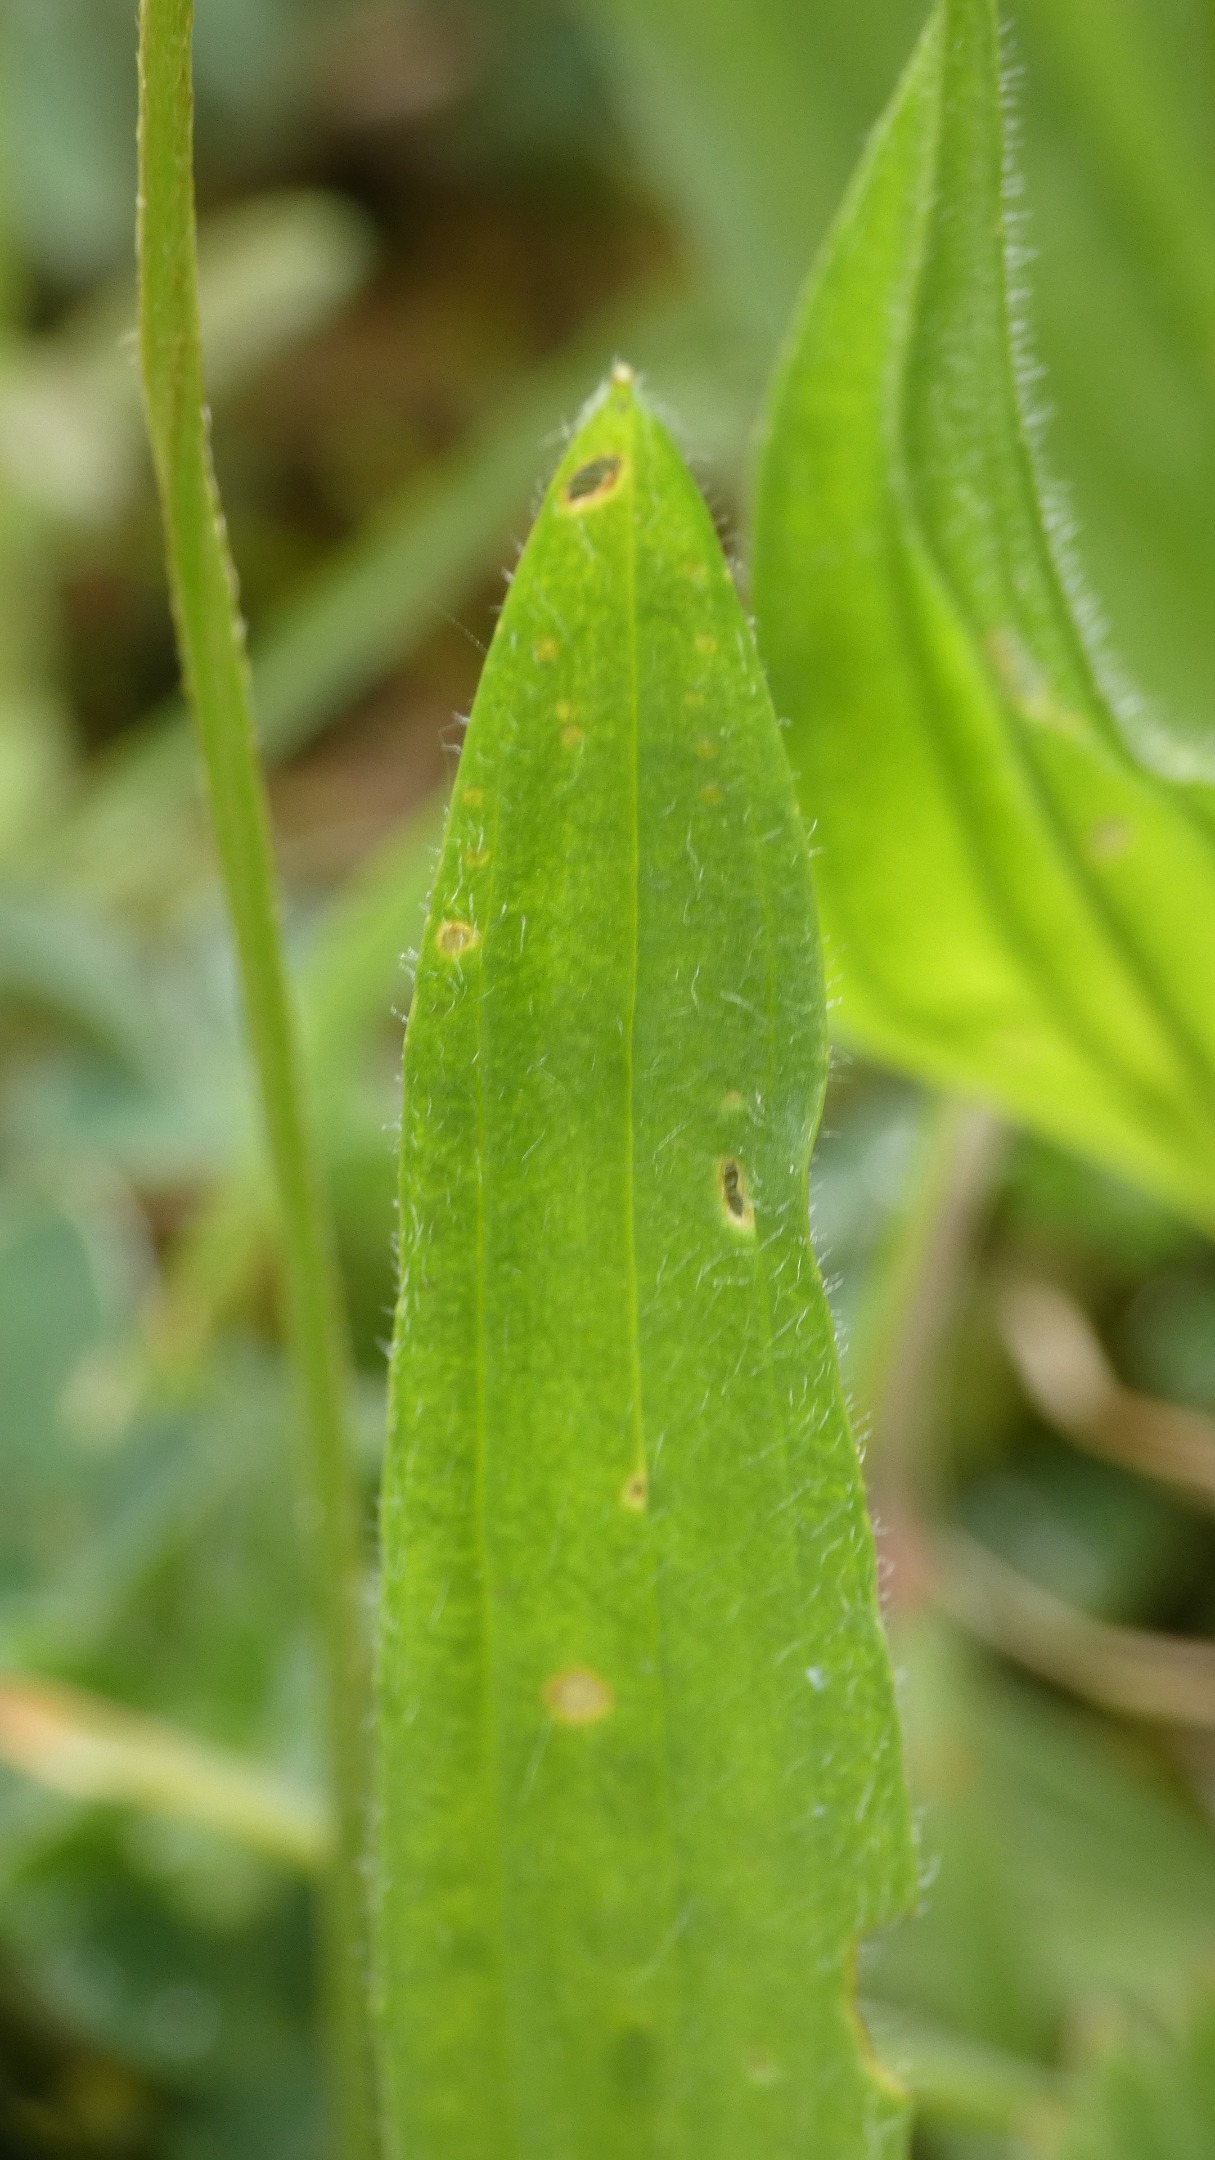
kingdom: Plantae
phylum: Tracheophyta
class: Magnoliopsida
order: Lamiales
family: Plantaginaceae
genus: Plantago
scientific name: Plantago lanceolata
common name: Lancet-vejbred
